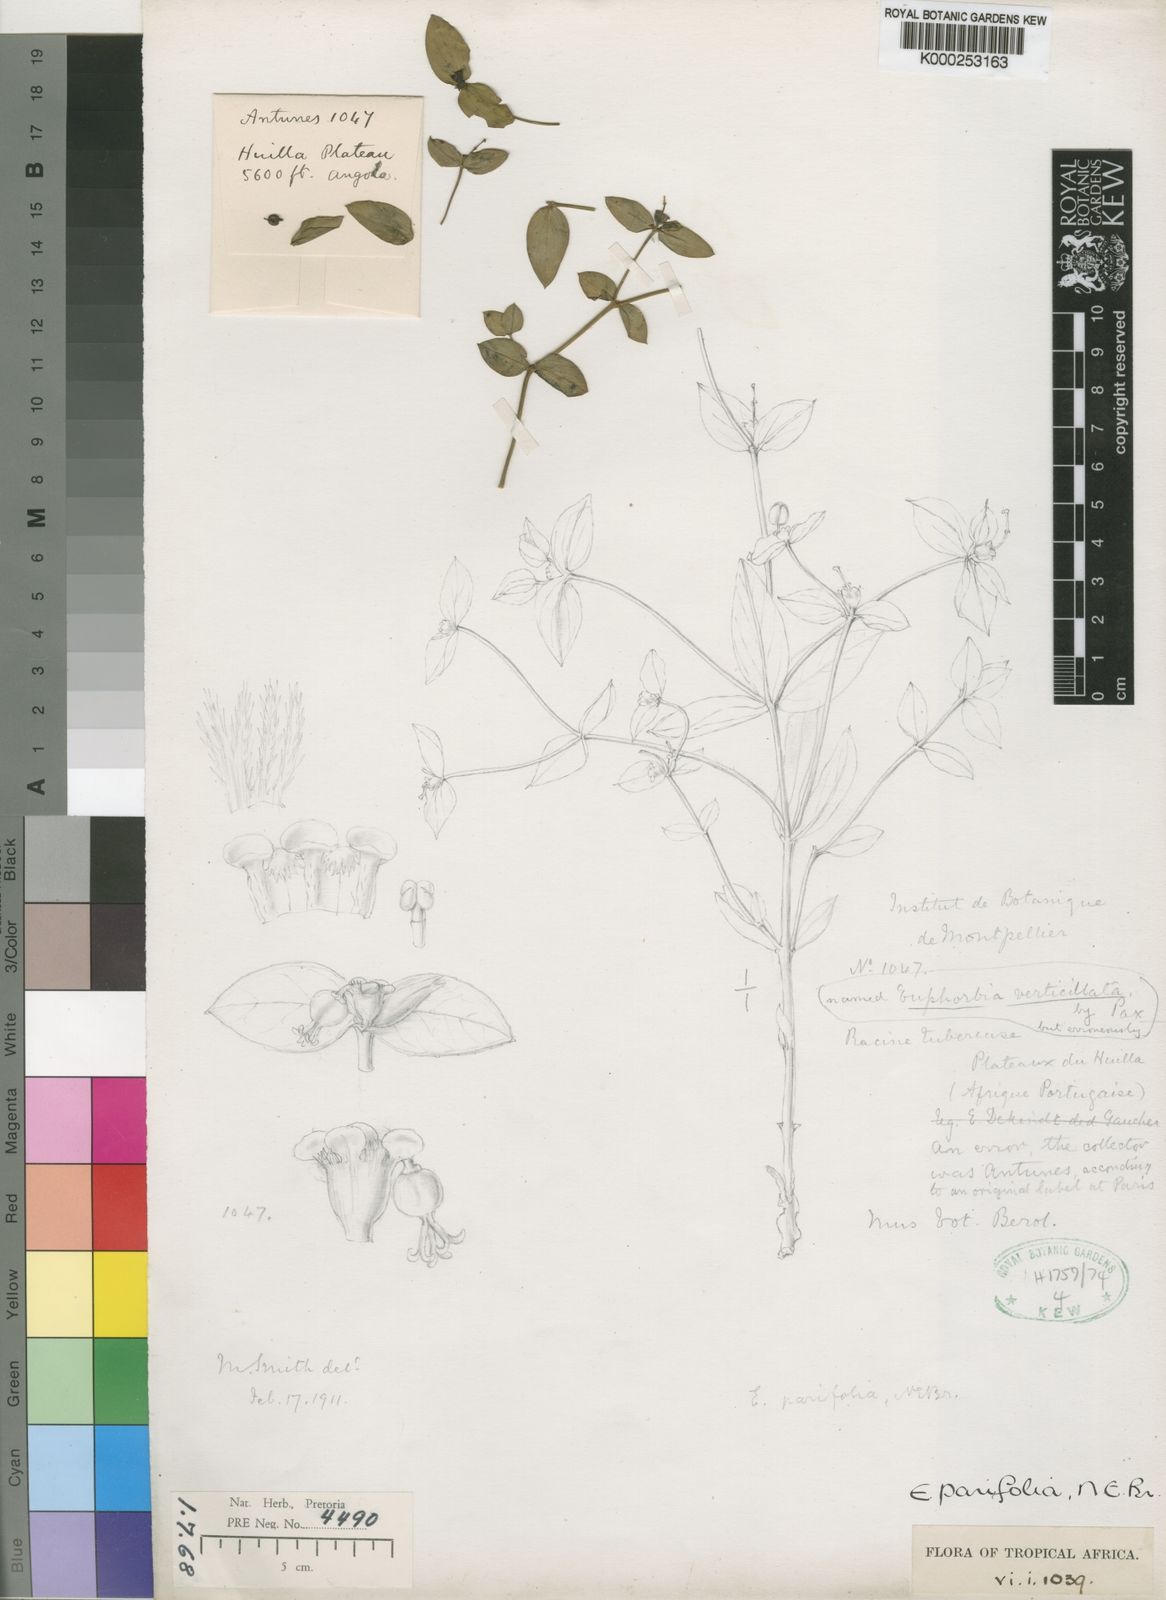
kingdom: Plantae
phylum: Tracheophyta
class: Magnoliopsida
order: Malpighiales
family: Euphorbiaceae
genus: Euphorbia
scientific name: Euphorbia parifolia
